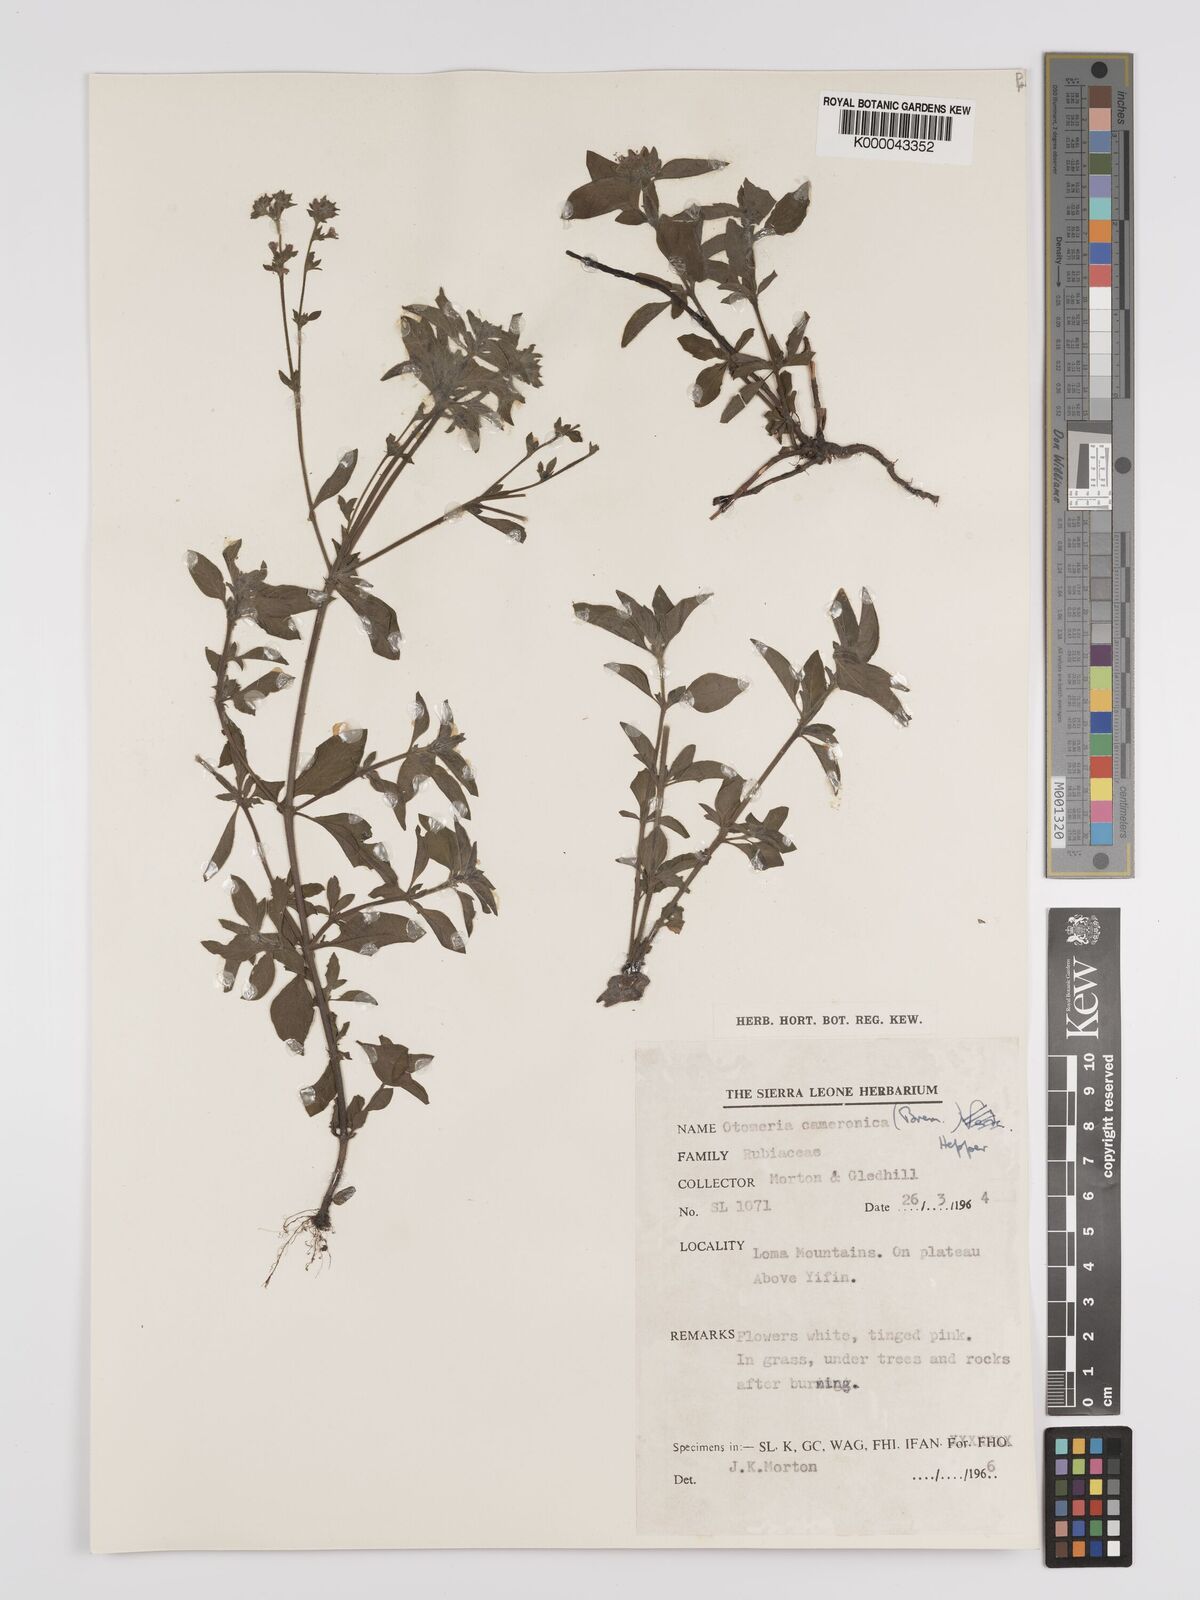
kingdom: Plantae
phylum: Tracheophyta
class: Magnoliopsida
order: Gentianales
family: Rubiaceae
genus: Otomeria
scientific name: Otomeria cameronica
